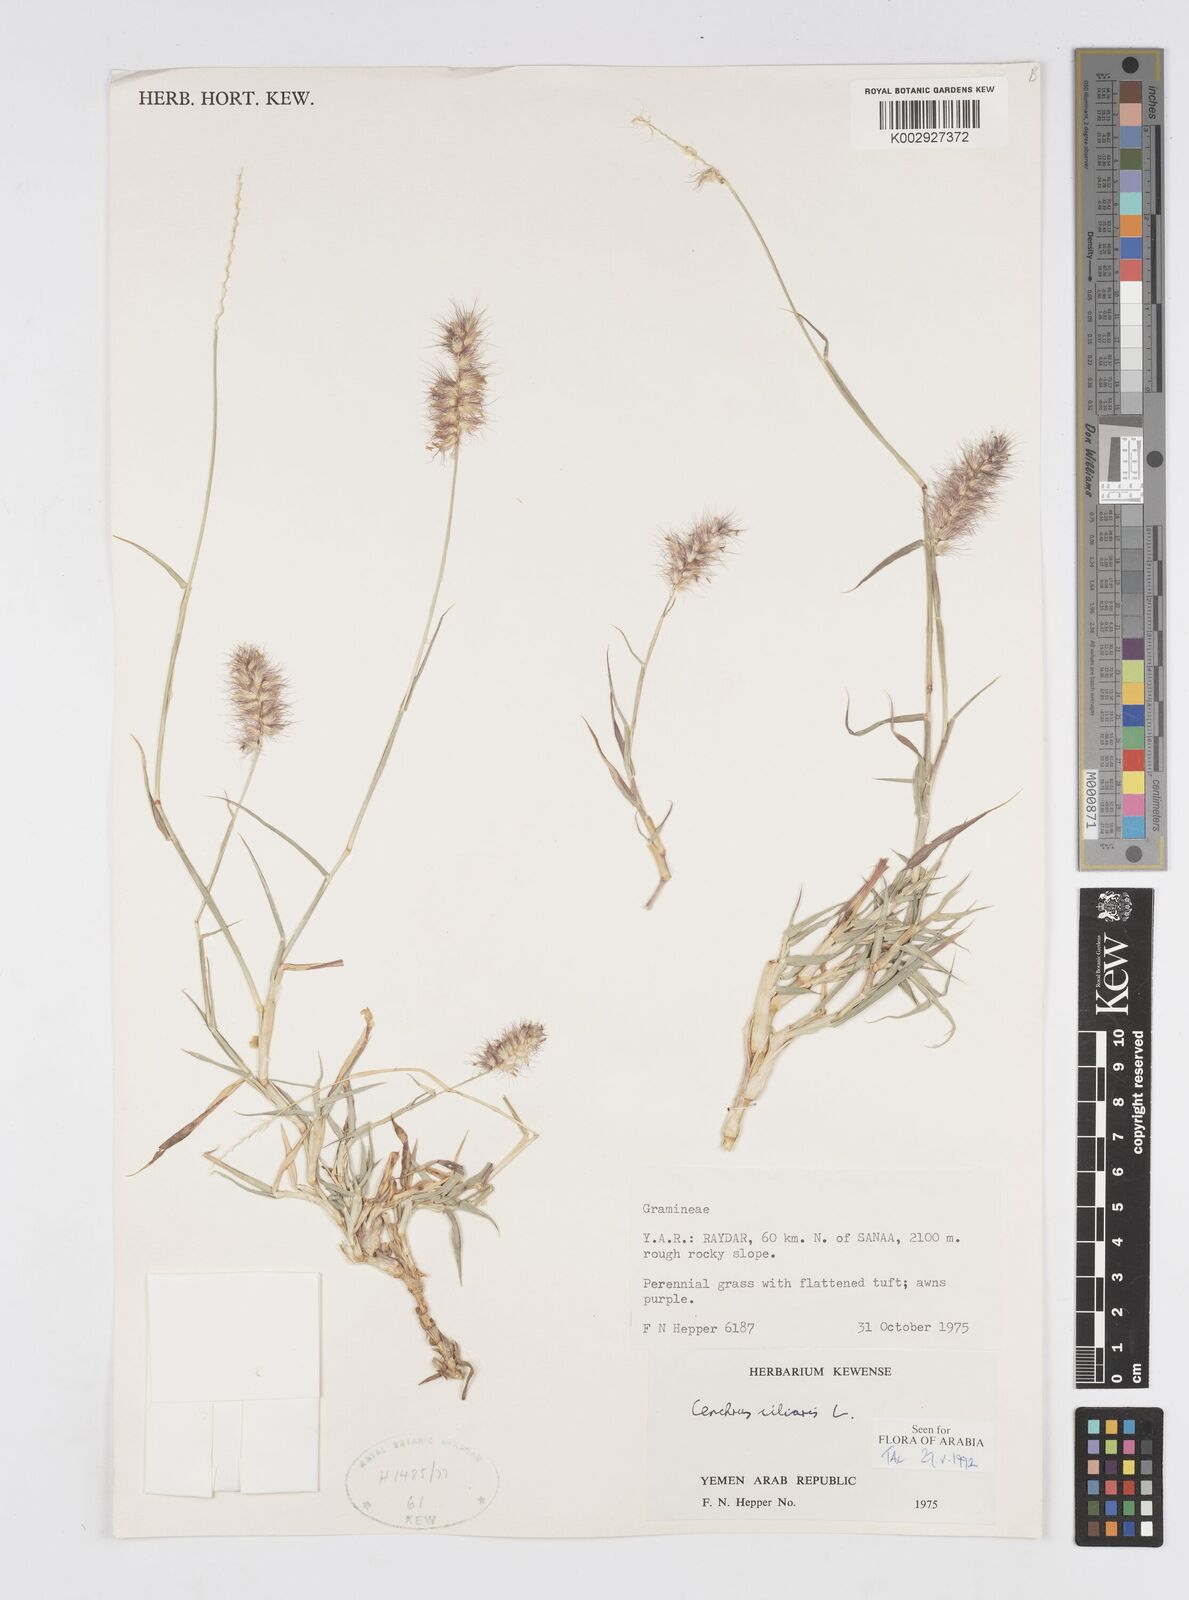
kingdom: Plantae
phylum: Tracheophyta
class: Liliopsida
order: Poales
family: Poaceae
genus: Cenchrus
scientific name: Cenchrus ciliaris
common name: Buffelgrass
